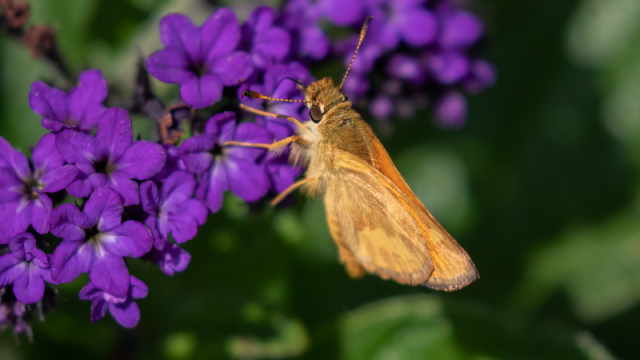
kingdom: Animalia
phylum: Arthropoda
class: Insecta
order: Lepidoptera
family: Hesperiidae
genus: Ochlodes
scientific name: Ochlodes sylvanoides
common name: Woodland Skipper
